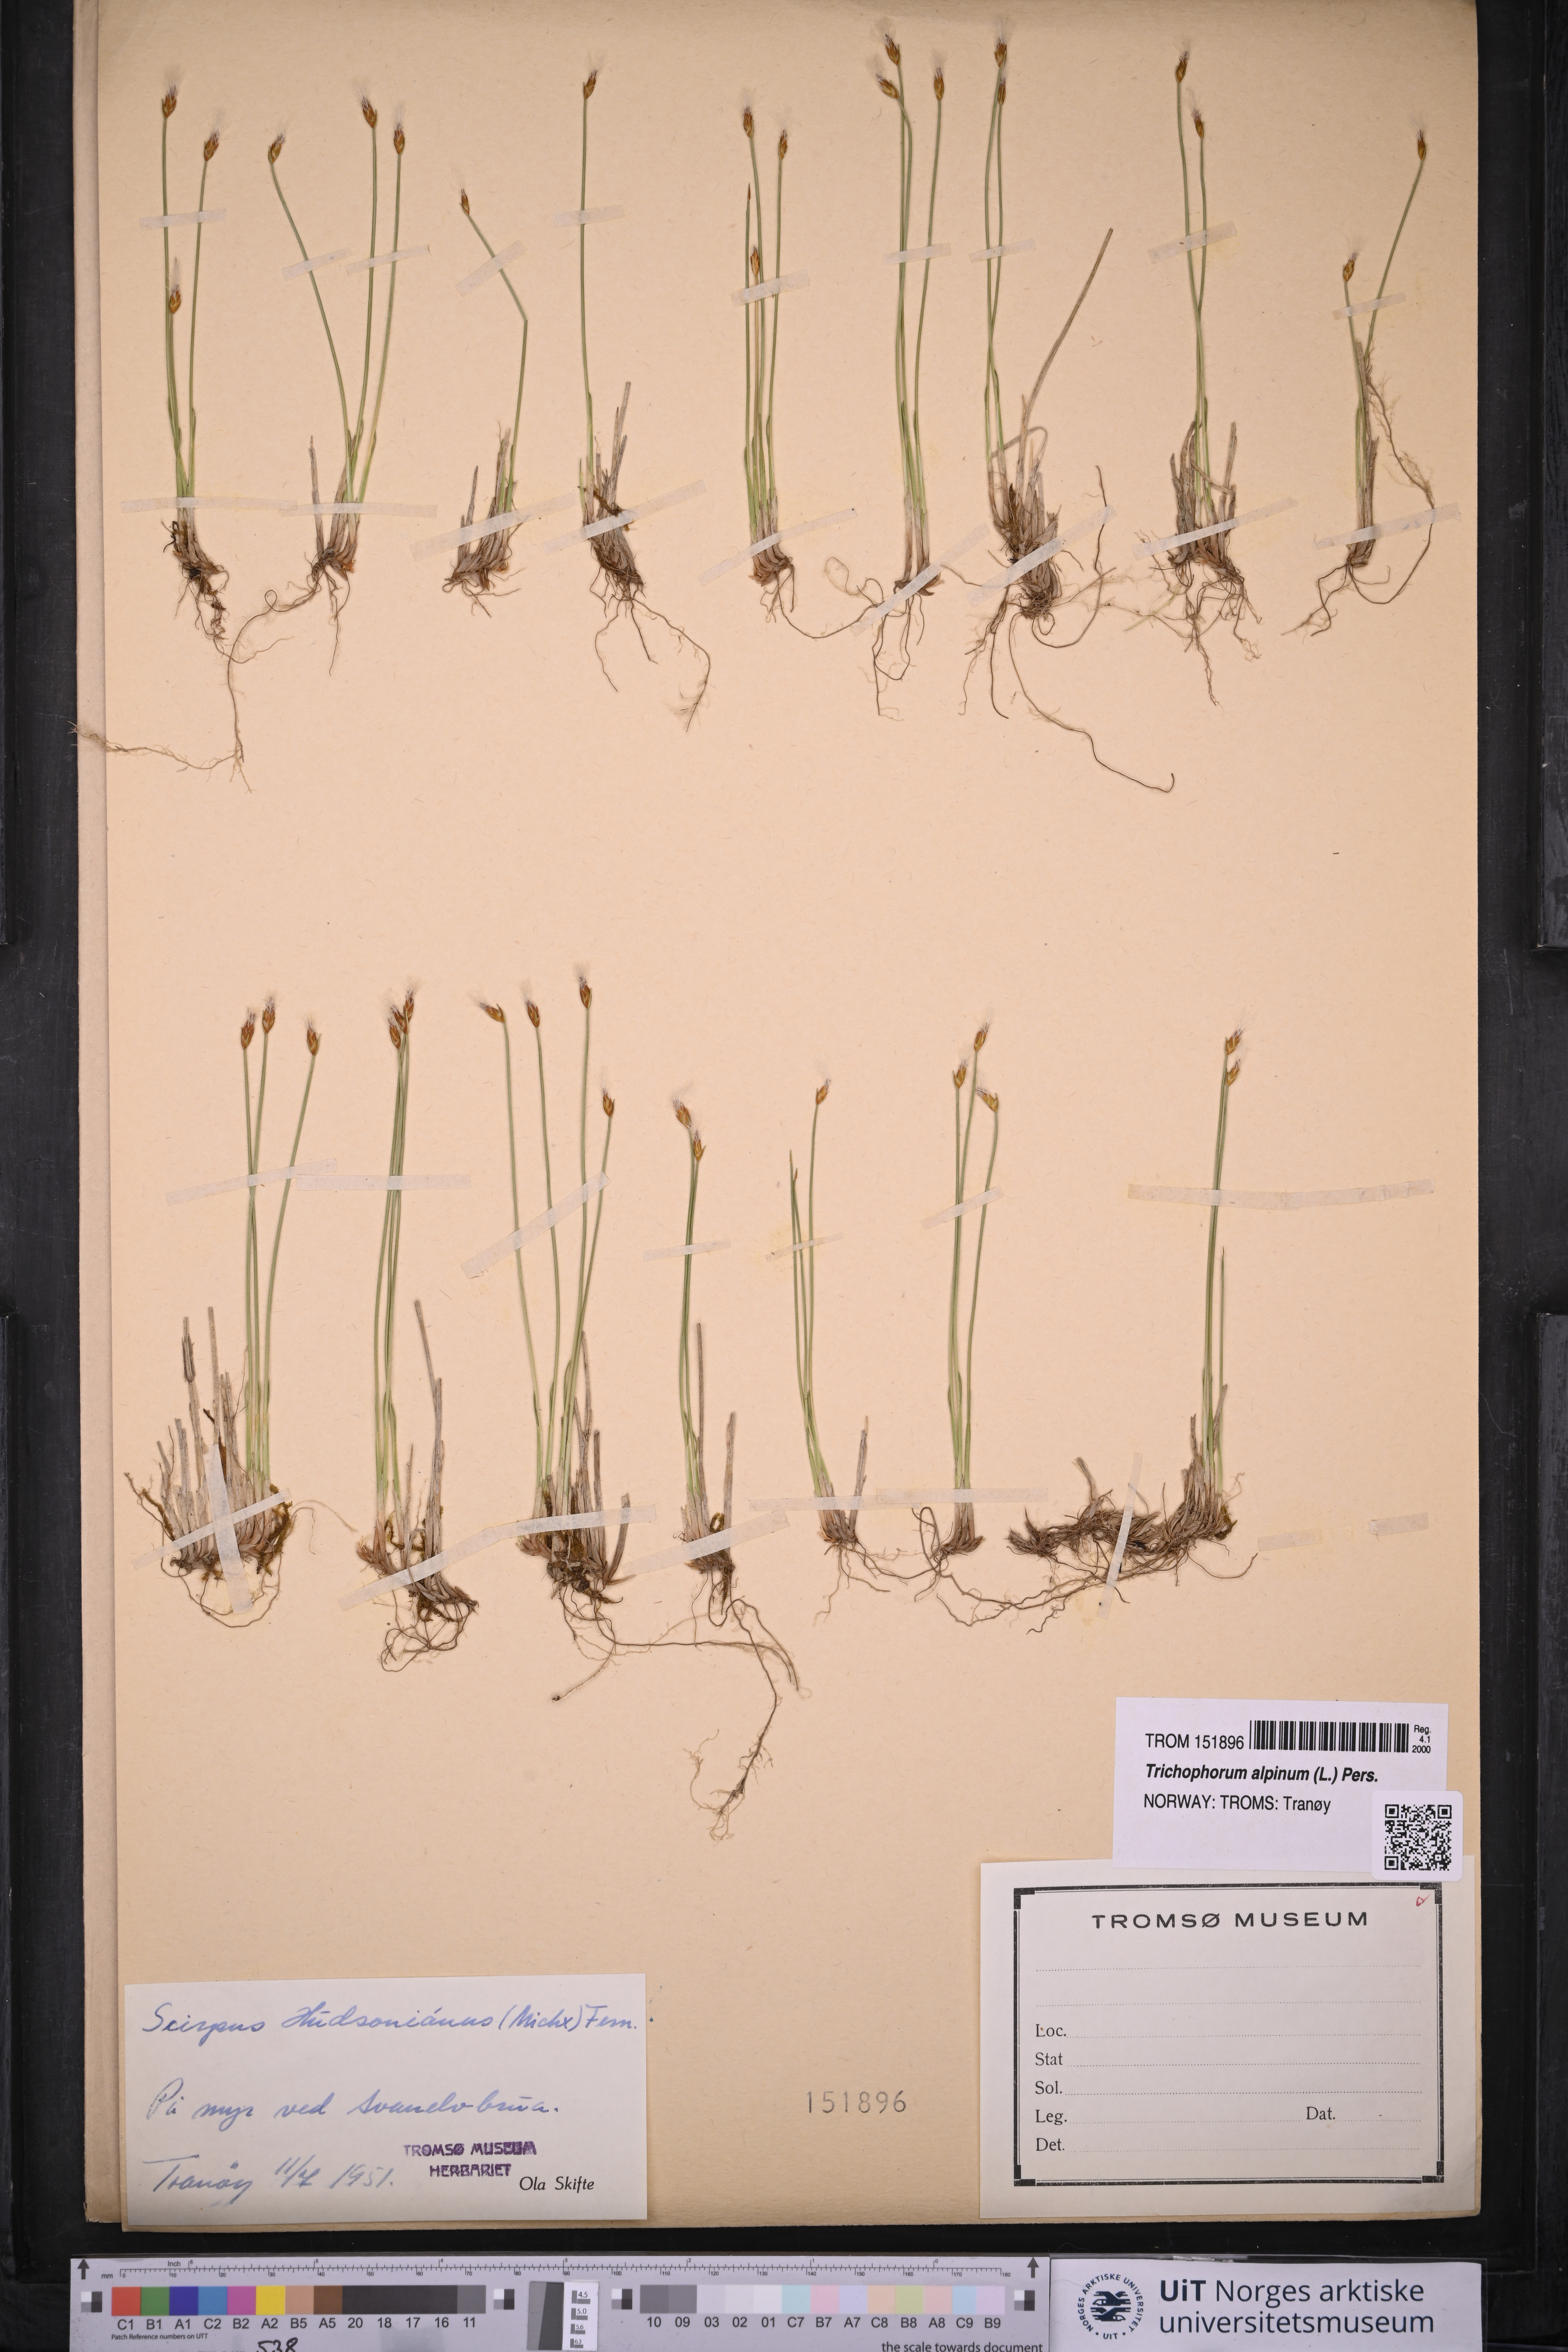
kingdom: Plantae
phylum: Tracheophyta
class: Liliopsida
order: Poales
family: Cyperaceae
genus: Trichophorum
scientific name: Trichophorum alpinum
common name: Alpine bulrush
